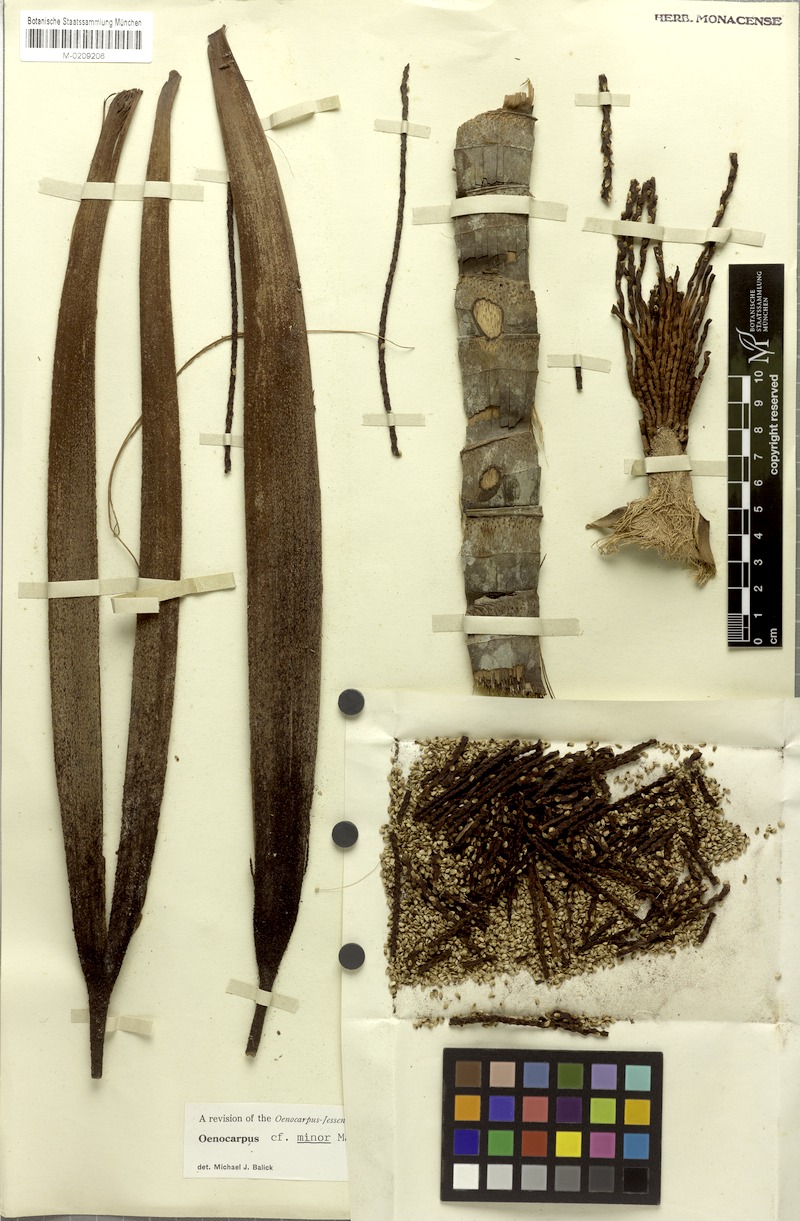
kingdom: Plantae
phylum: Tracheophyta
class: Liliopsida
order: Arecales
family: Arecaceae
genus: Oenocarpus
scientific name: Oenocarpus minor
